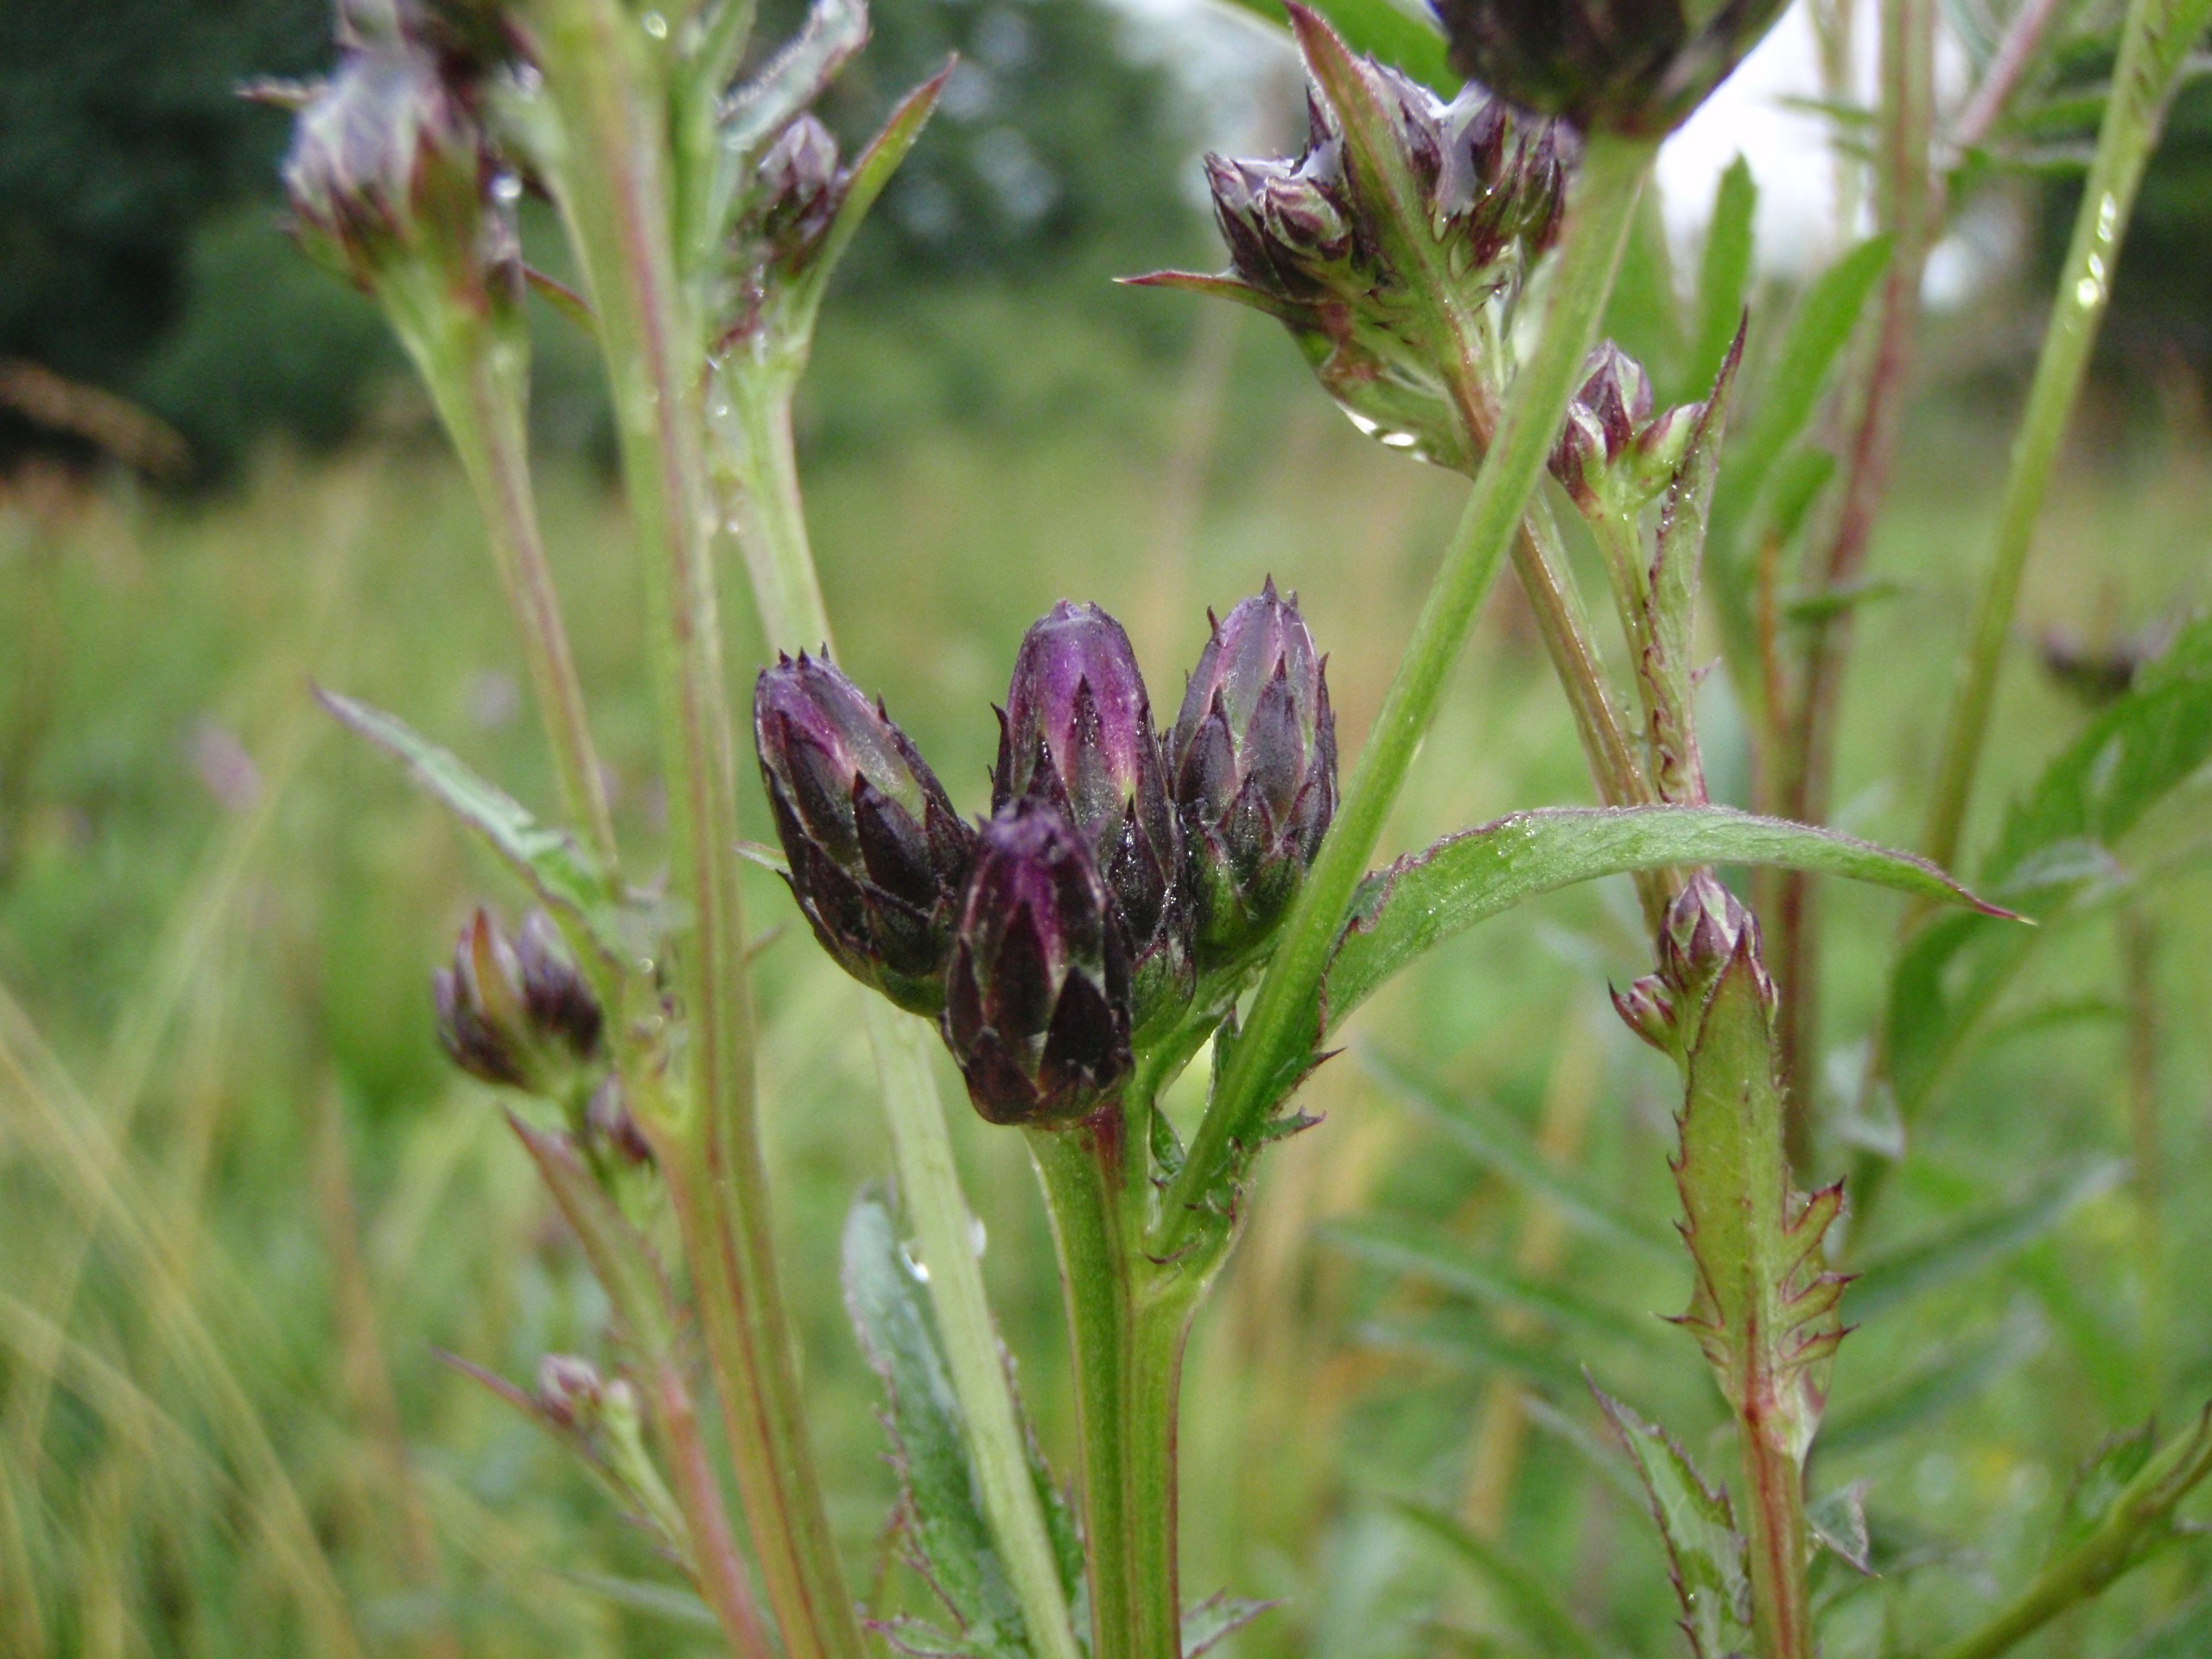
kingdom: Plantae
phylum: Tracheophyta
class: Magnoliopsida
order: Asterales
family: Asteraceae
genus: Serratula
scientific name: Serratula tinctoria
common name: Eng-skær
